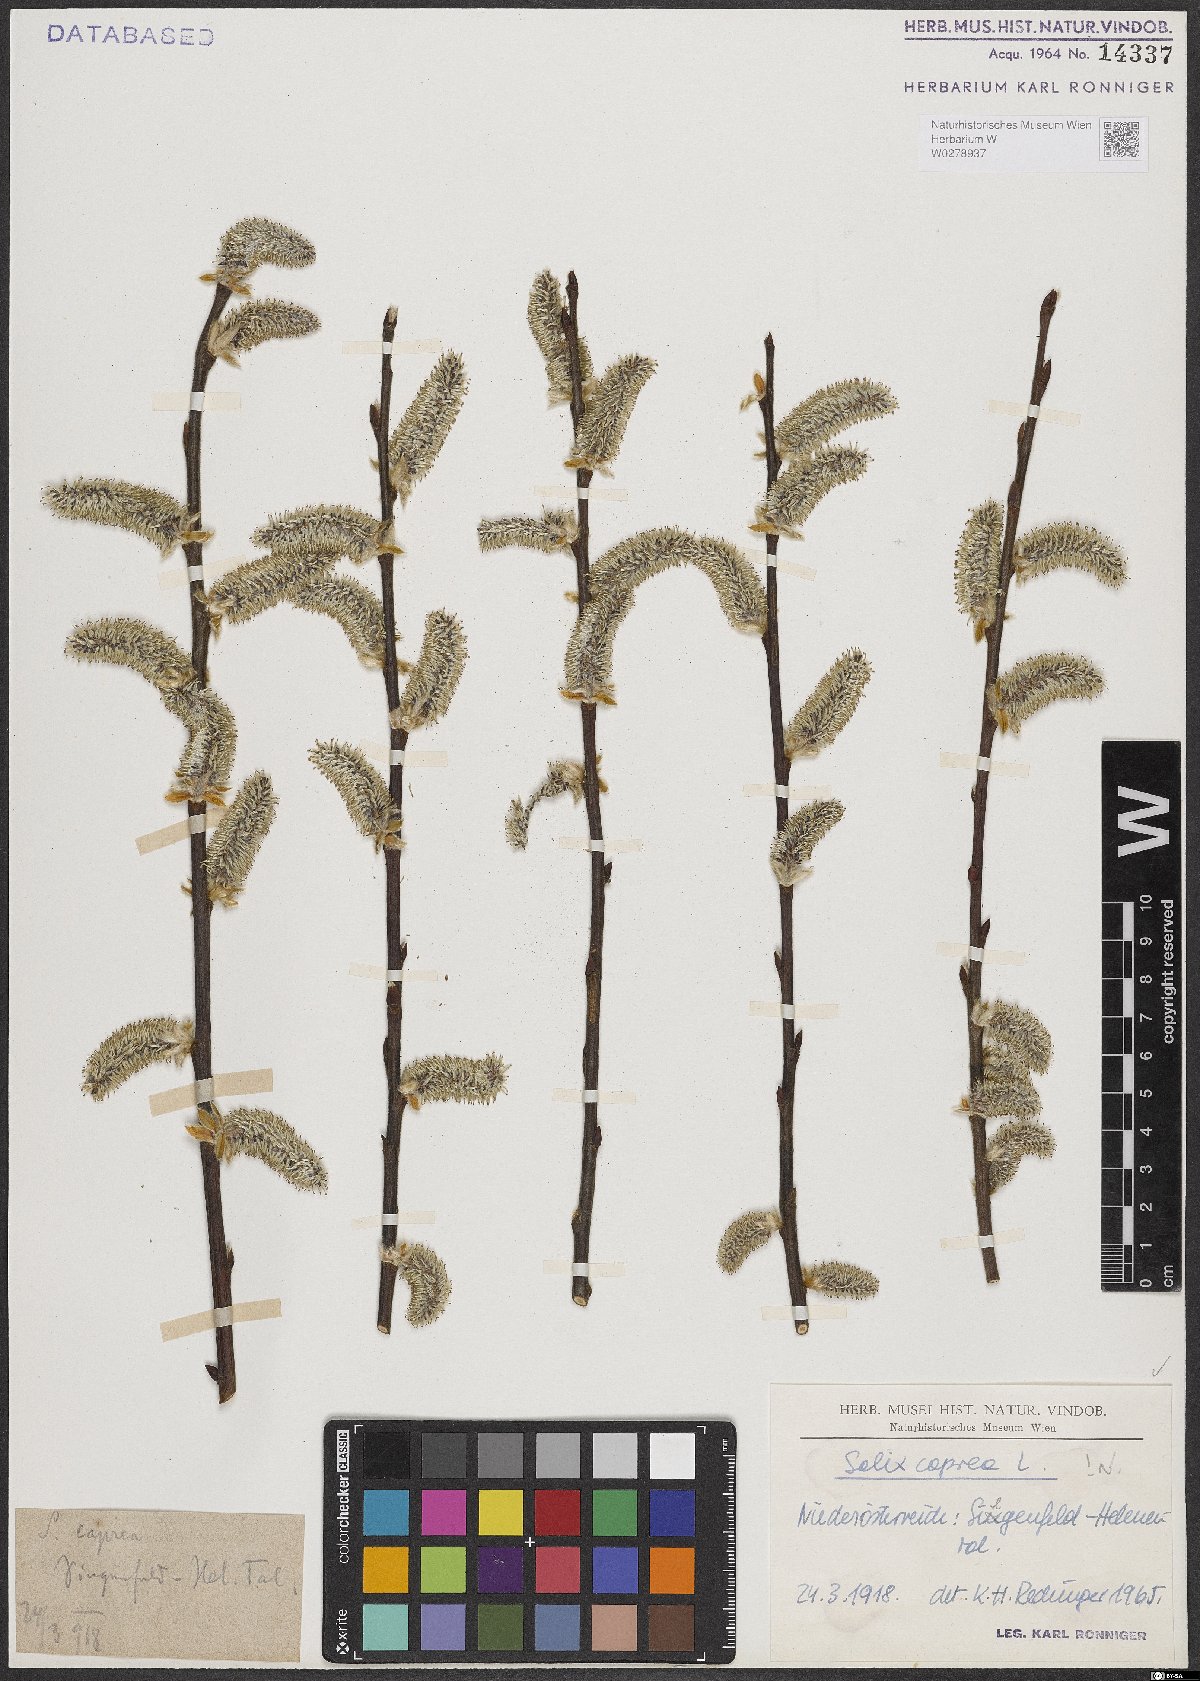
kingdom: Plantae
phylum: Tracheophyta
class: Magnoliopsida
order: Malpighiales
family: Salicaceae
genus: Salix
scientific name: Salix caprea
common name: Goat willow
